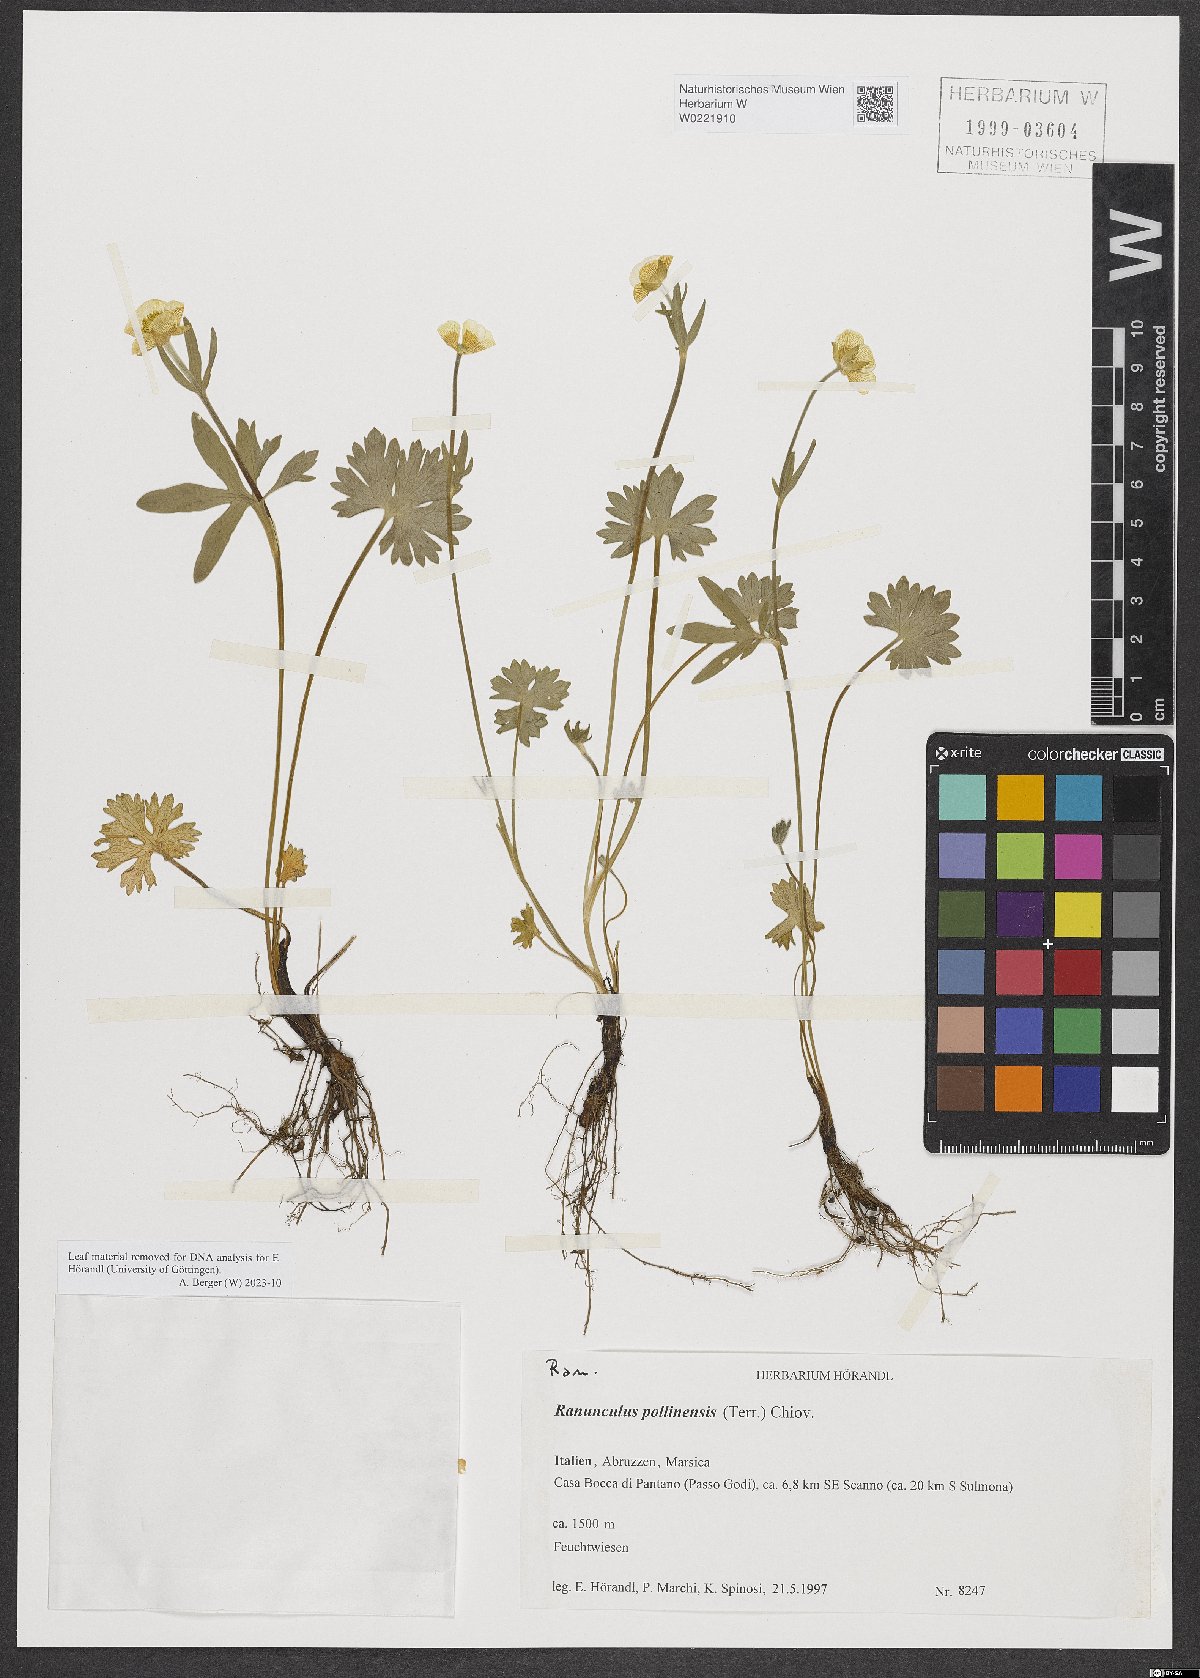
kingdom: Plantae
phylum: Tracheophyta
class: Magnoliopsida
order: Ranunculales
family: Ranunculaceae
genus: Ranunculus
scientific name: Ranunculus pollinensis
